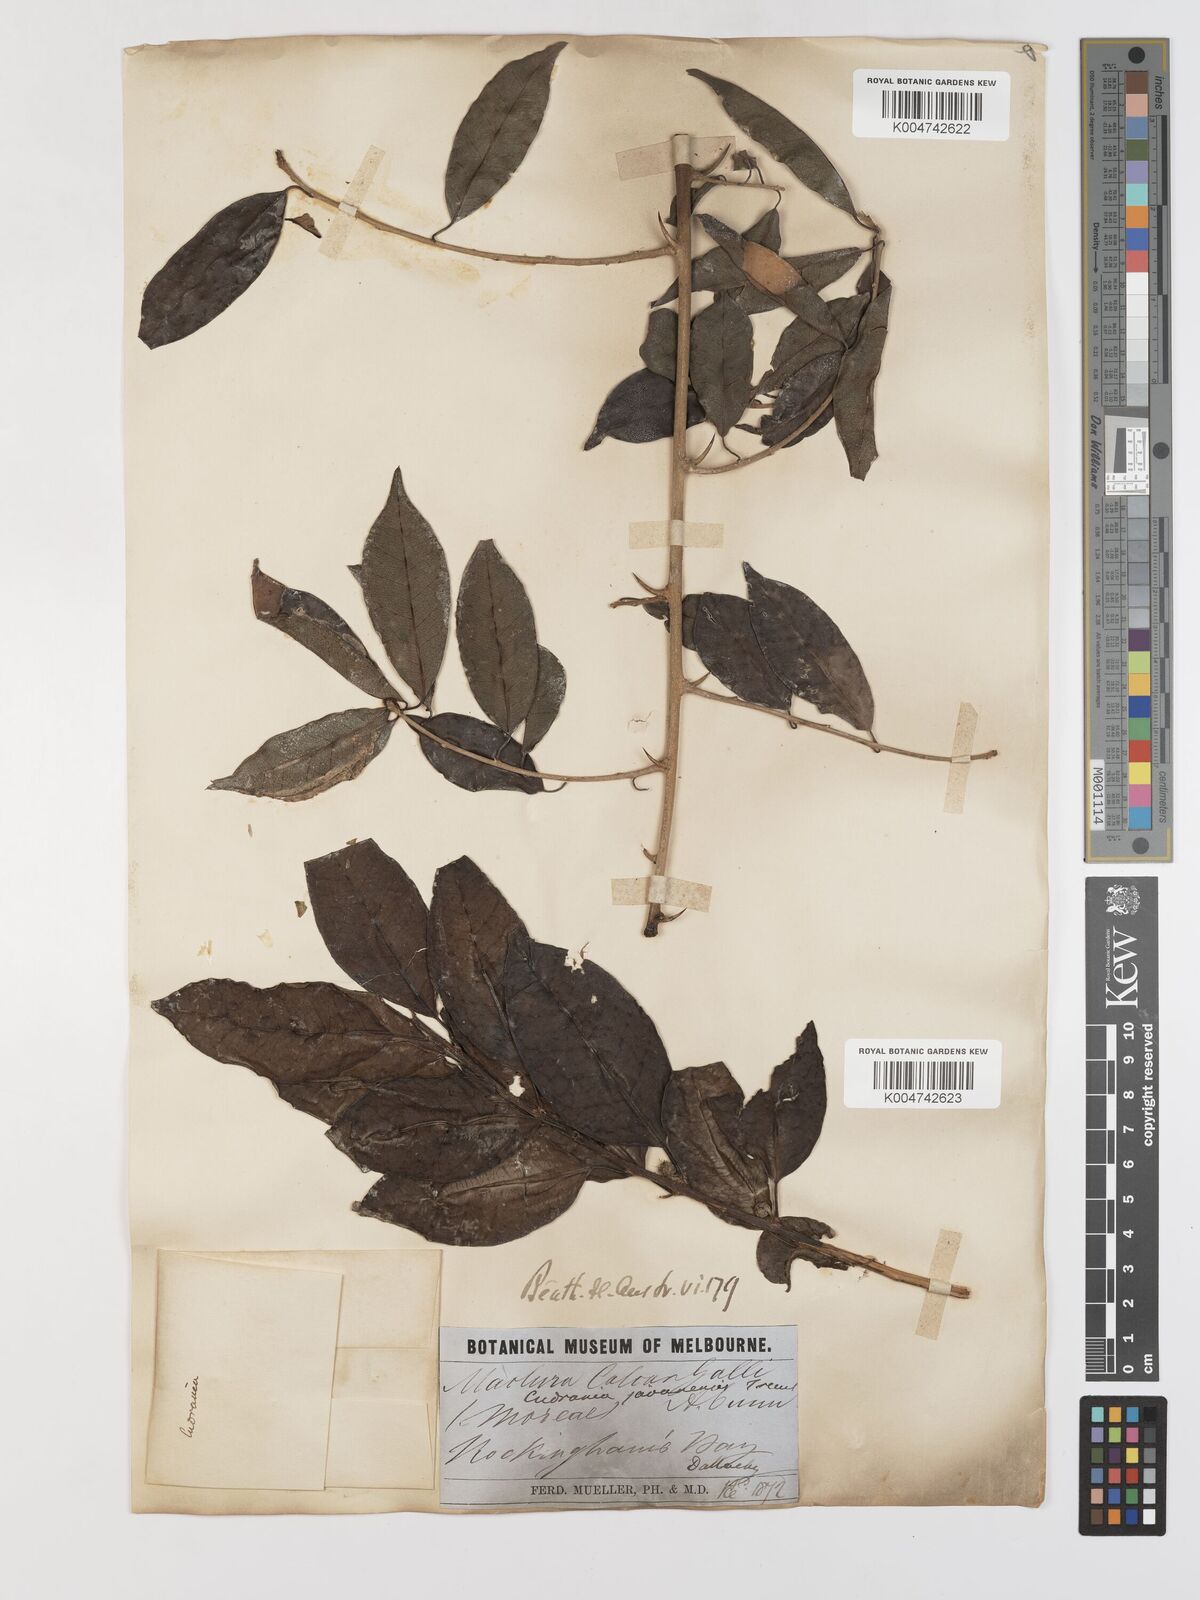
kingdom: Plantae
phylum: Tracheophyta
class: Magnoliopsida
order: Rosales
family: Moraceae
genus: Maclura
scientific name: Maclura cochinchinensis
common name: Cockspurthorn
